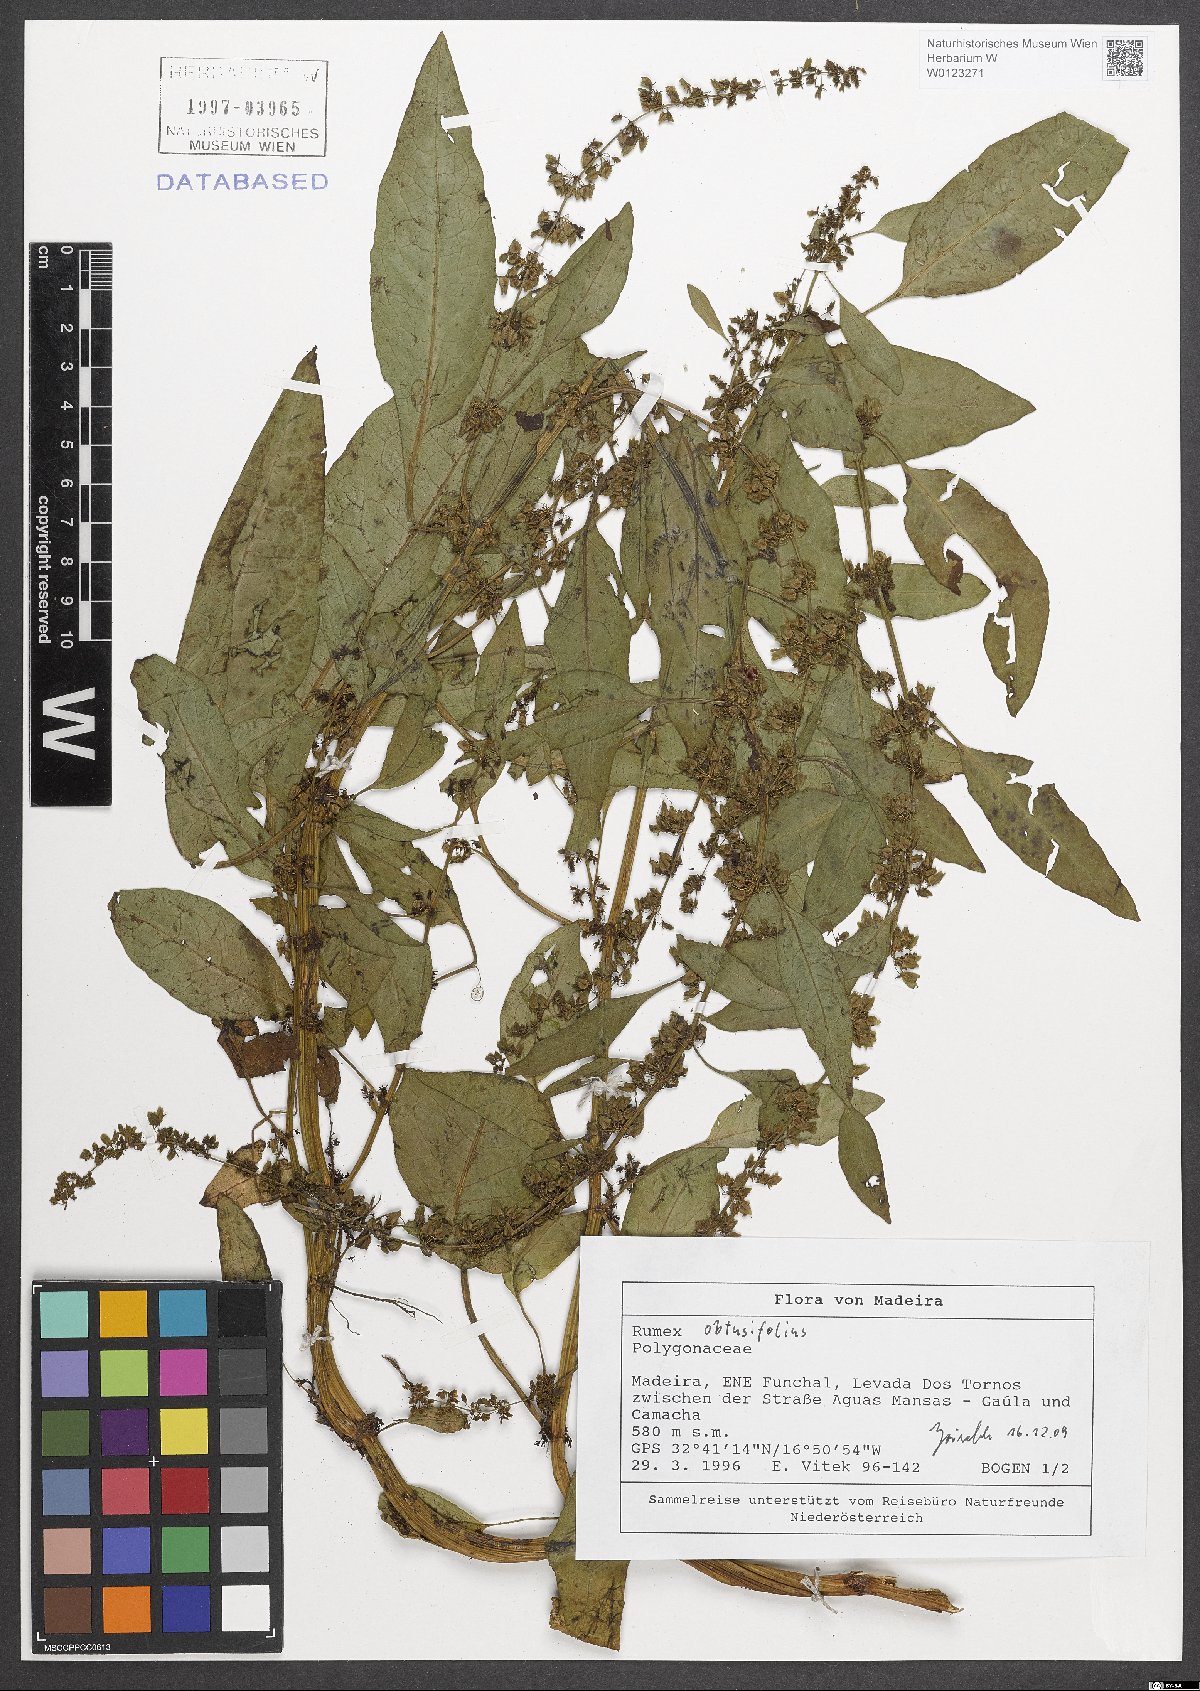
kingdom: Plantae
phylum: Tracheophyta
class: Magnoliopsida
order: Caryophyllales
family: Polygonaceae
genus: Rumex
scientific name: Rumex obtusifolius
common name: Bitter dock
